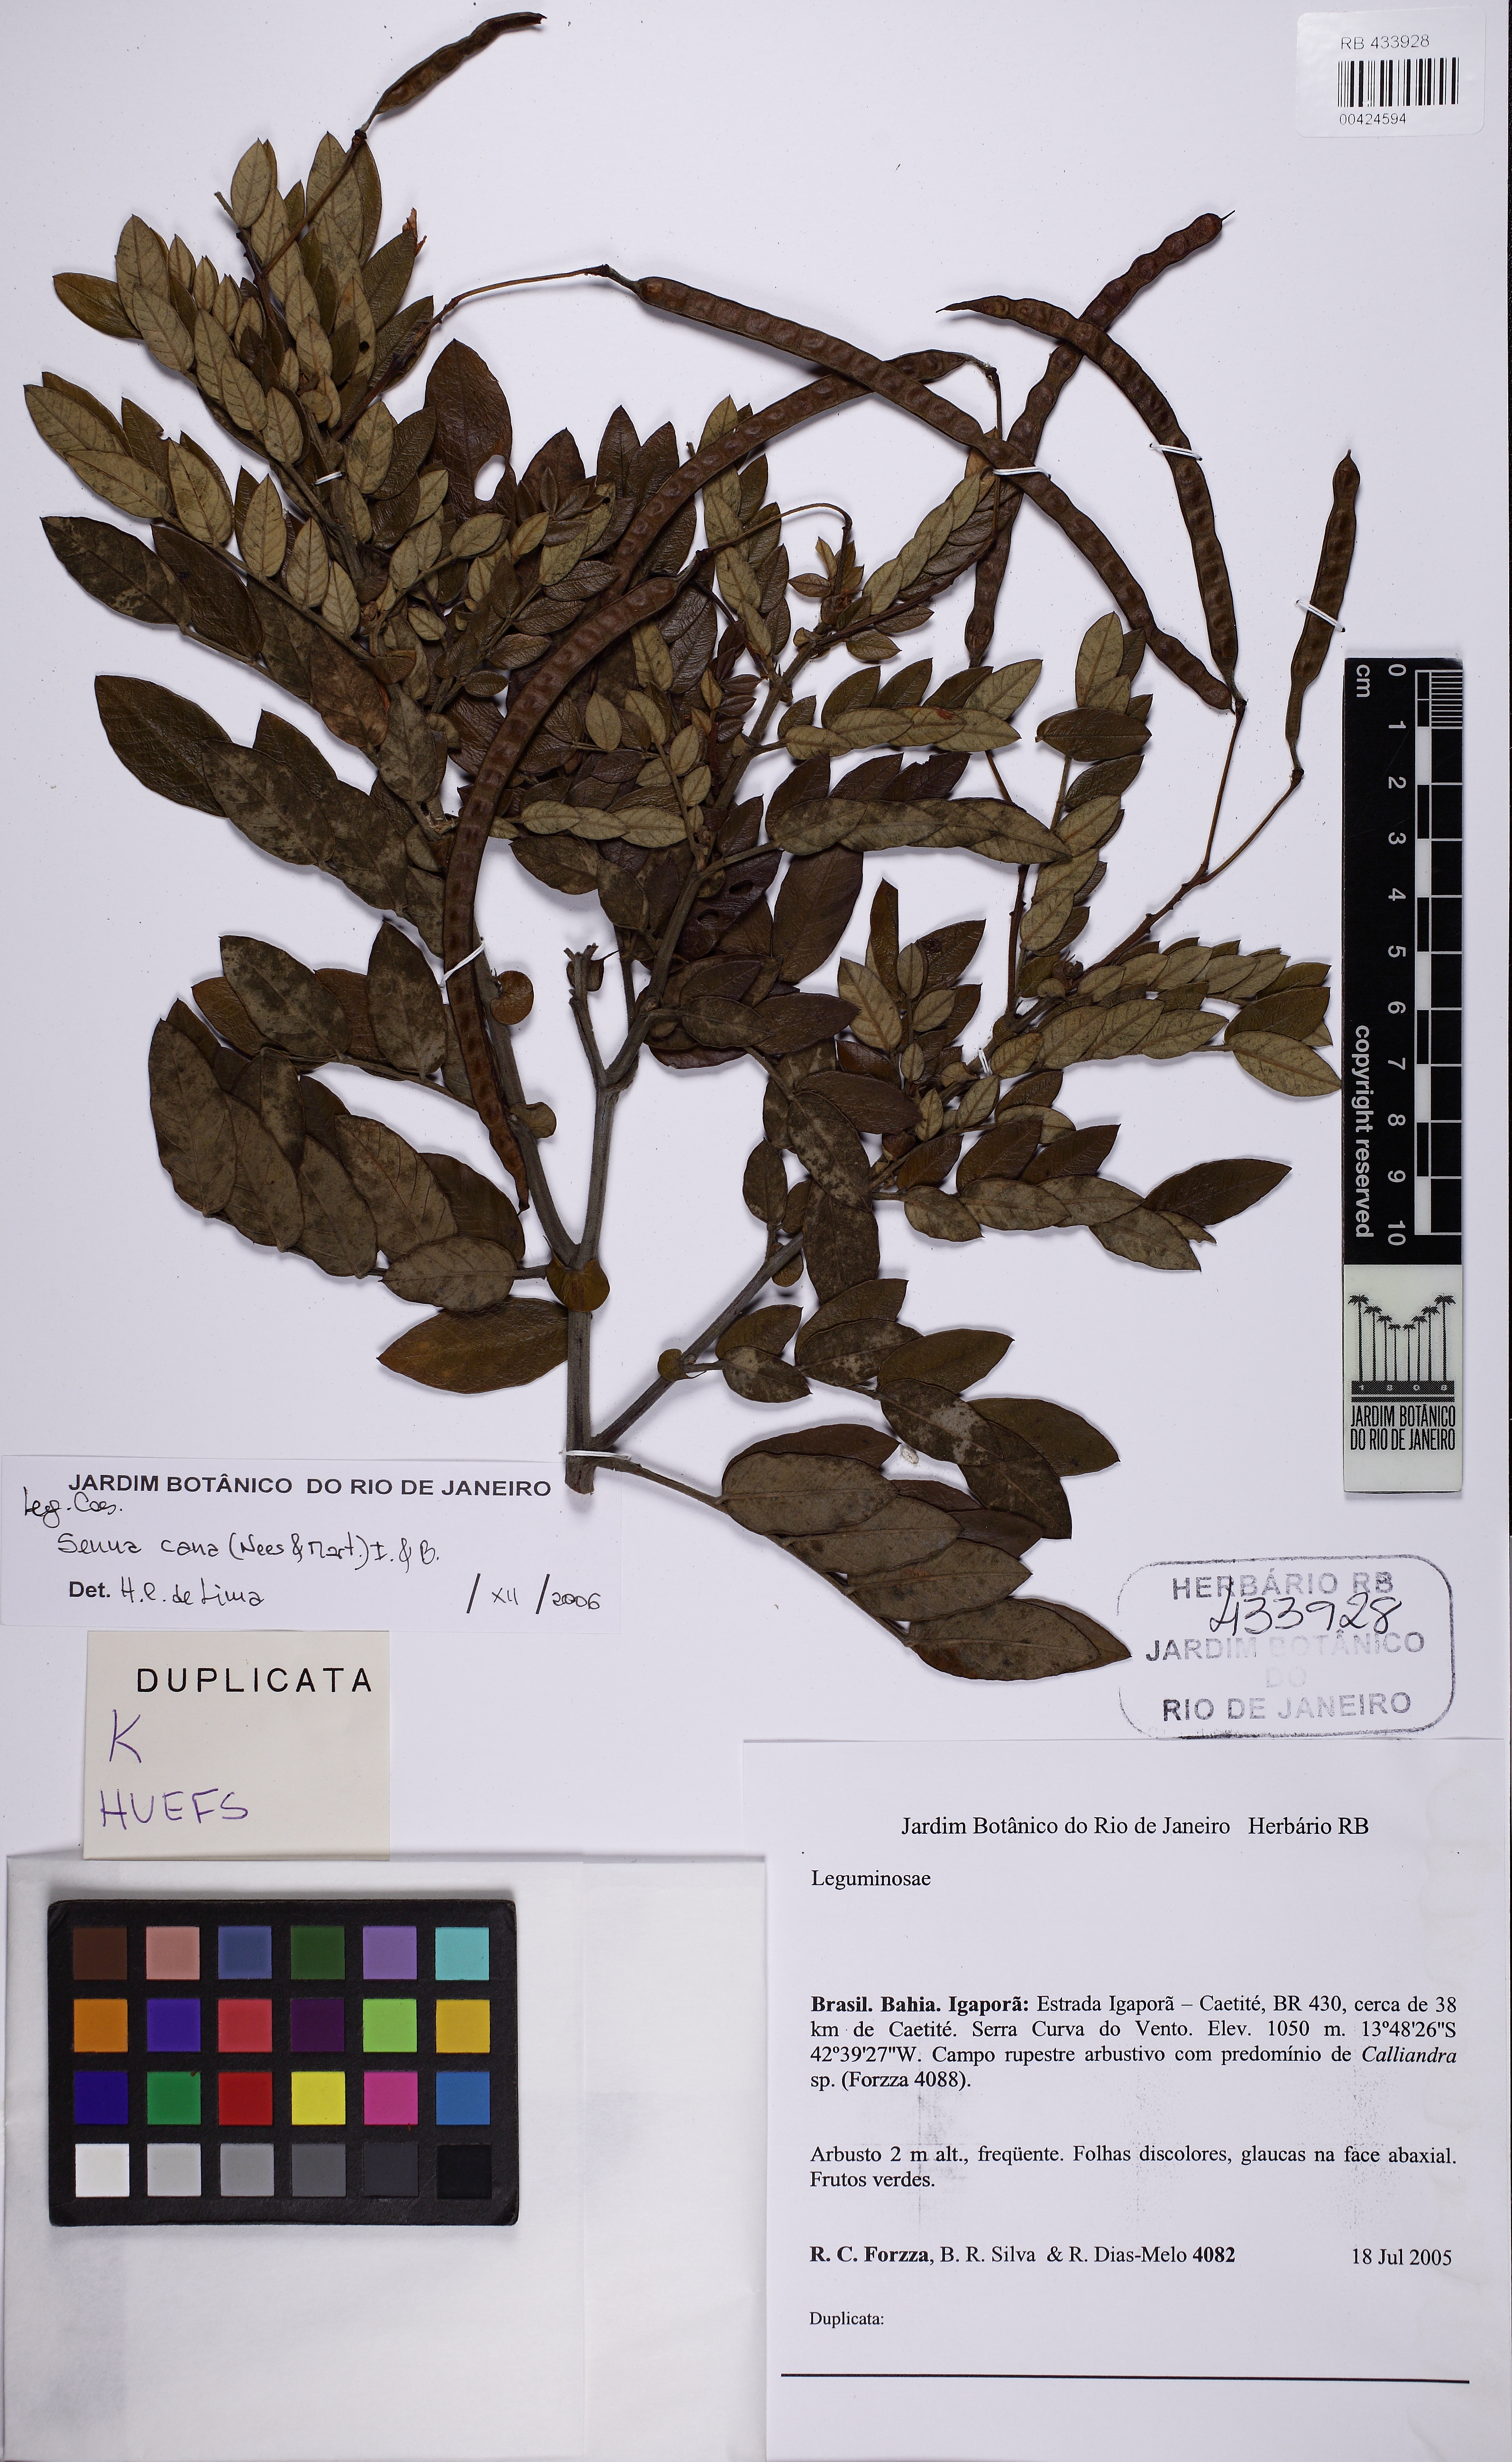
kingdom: Plantae
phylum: Tracheophyta
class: Magnoliopsida
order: Fabales
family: Fabaceae
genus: Senna
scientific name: Senna cana
